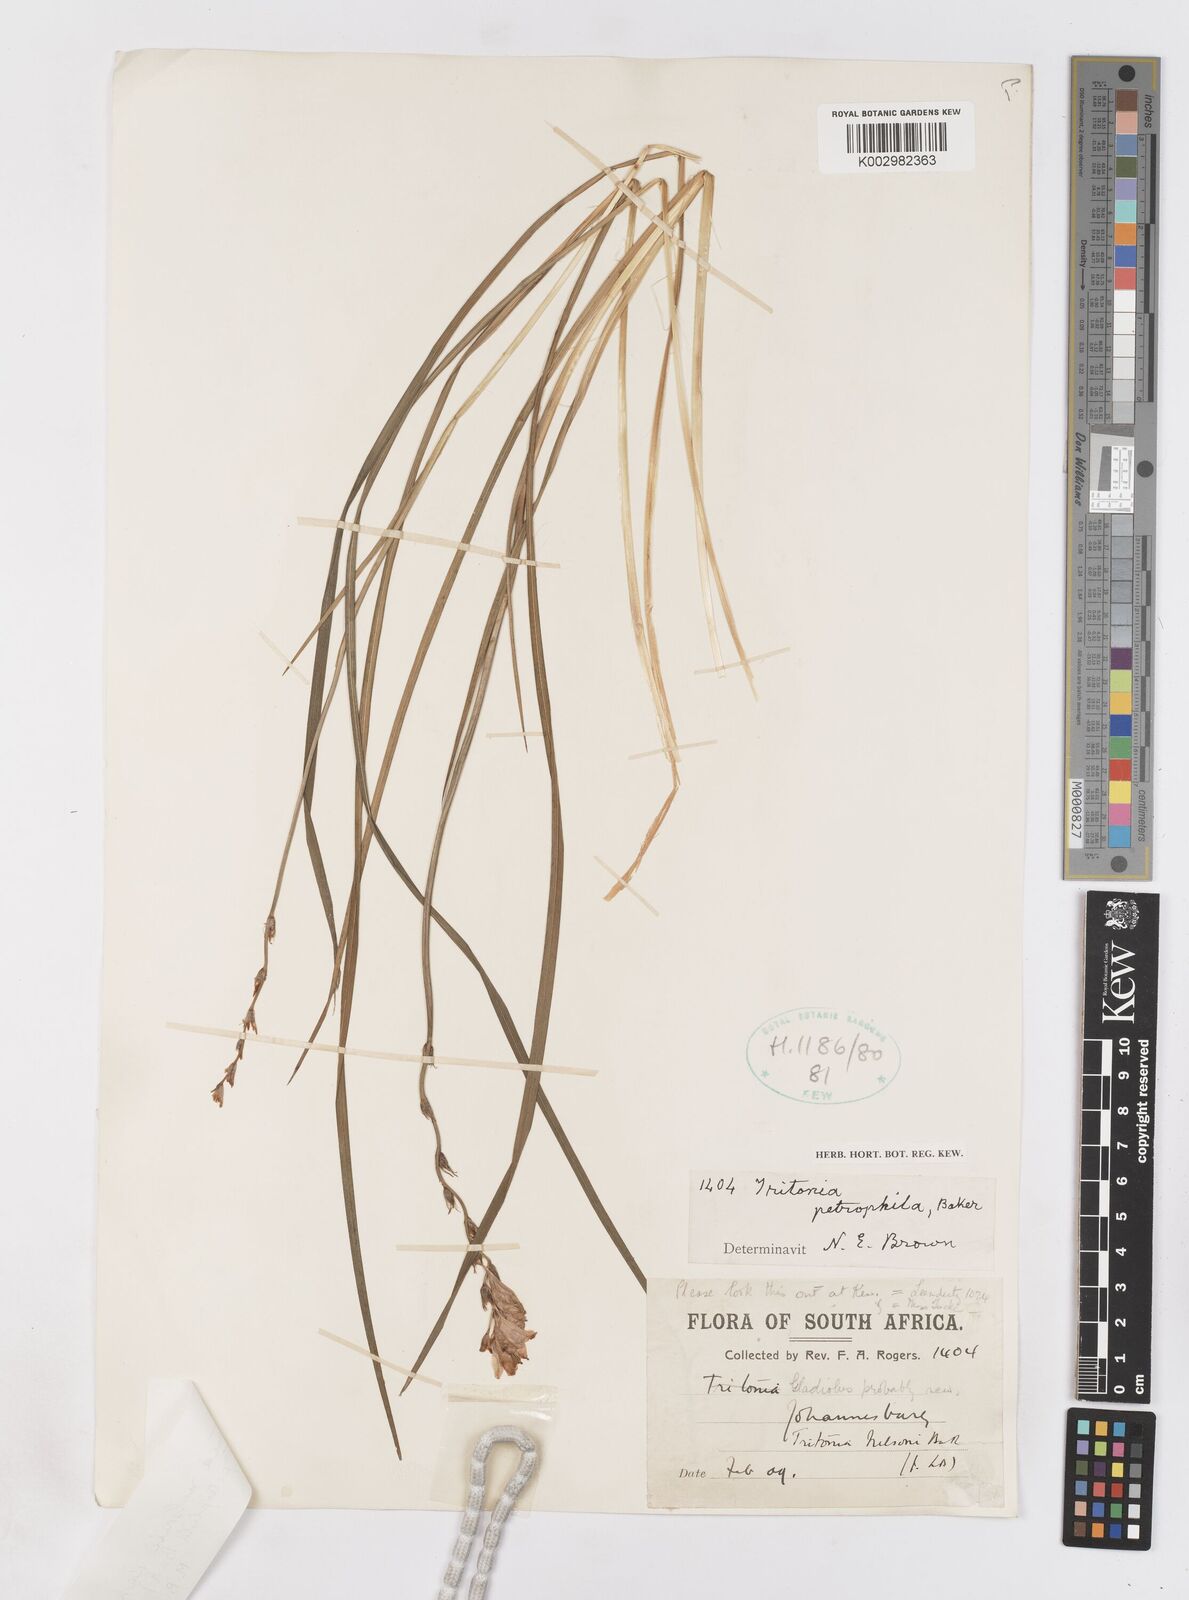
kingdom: Plantae
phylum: Tracheophyta
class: Liliopsida
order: Asparagales
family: Iridaceae
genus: Tritonia
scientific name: Tritonia nelsonii
